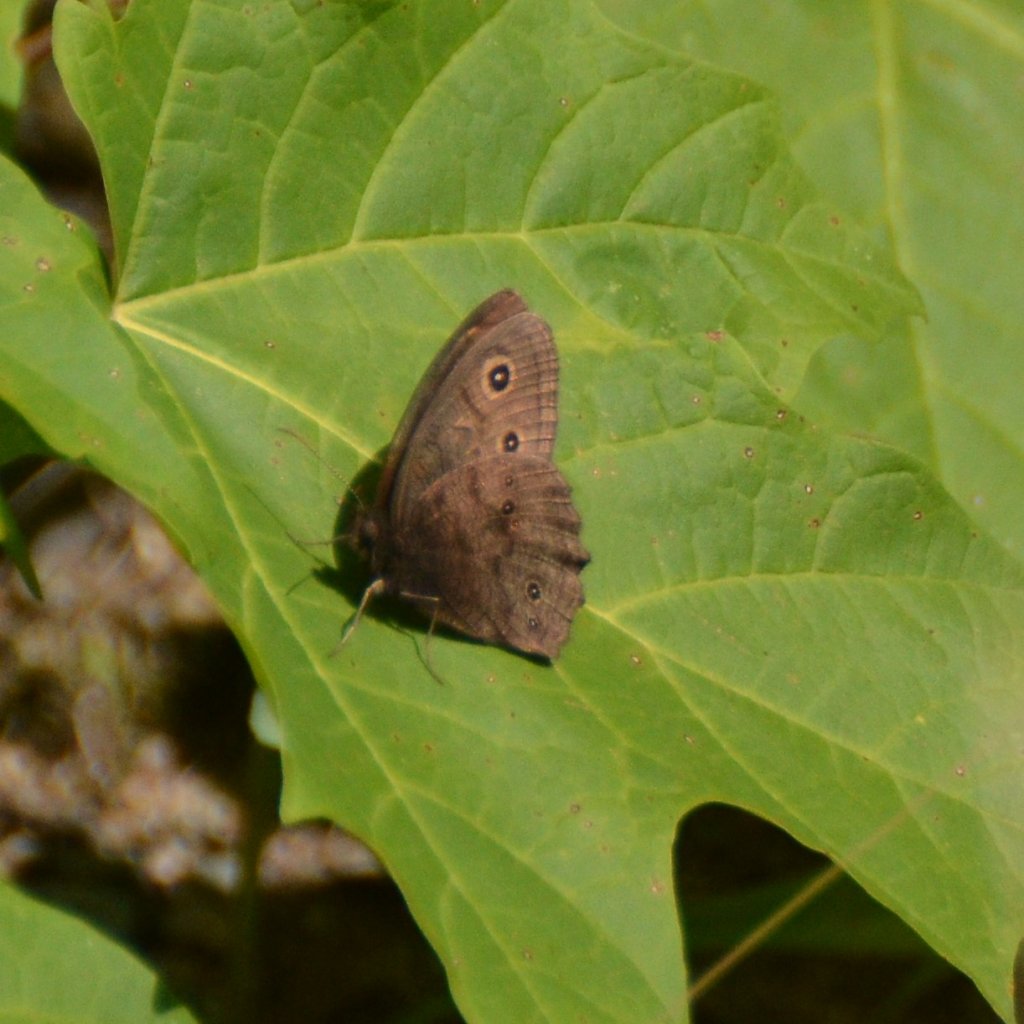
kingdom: Animalia
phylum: Arthropoda
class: Insecta
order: Lepidoptera
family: Nymphalidae
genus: Cercyonis
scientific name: Cercyonis pegala
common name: Common Wood-Nymph
